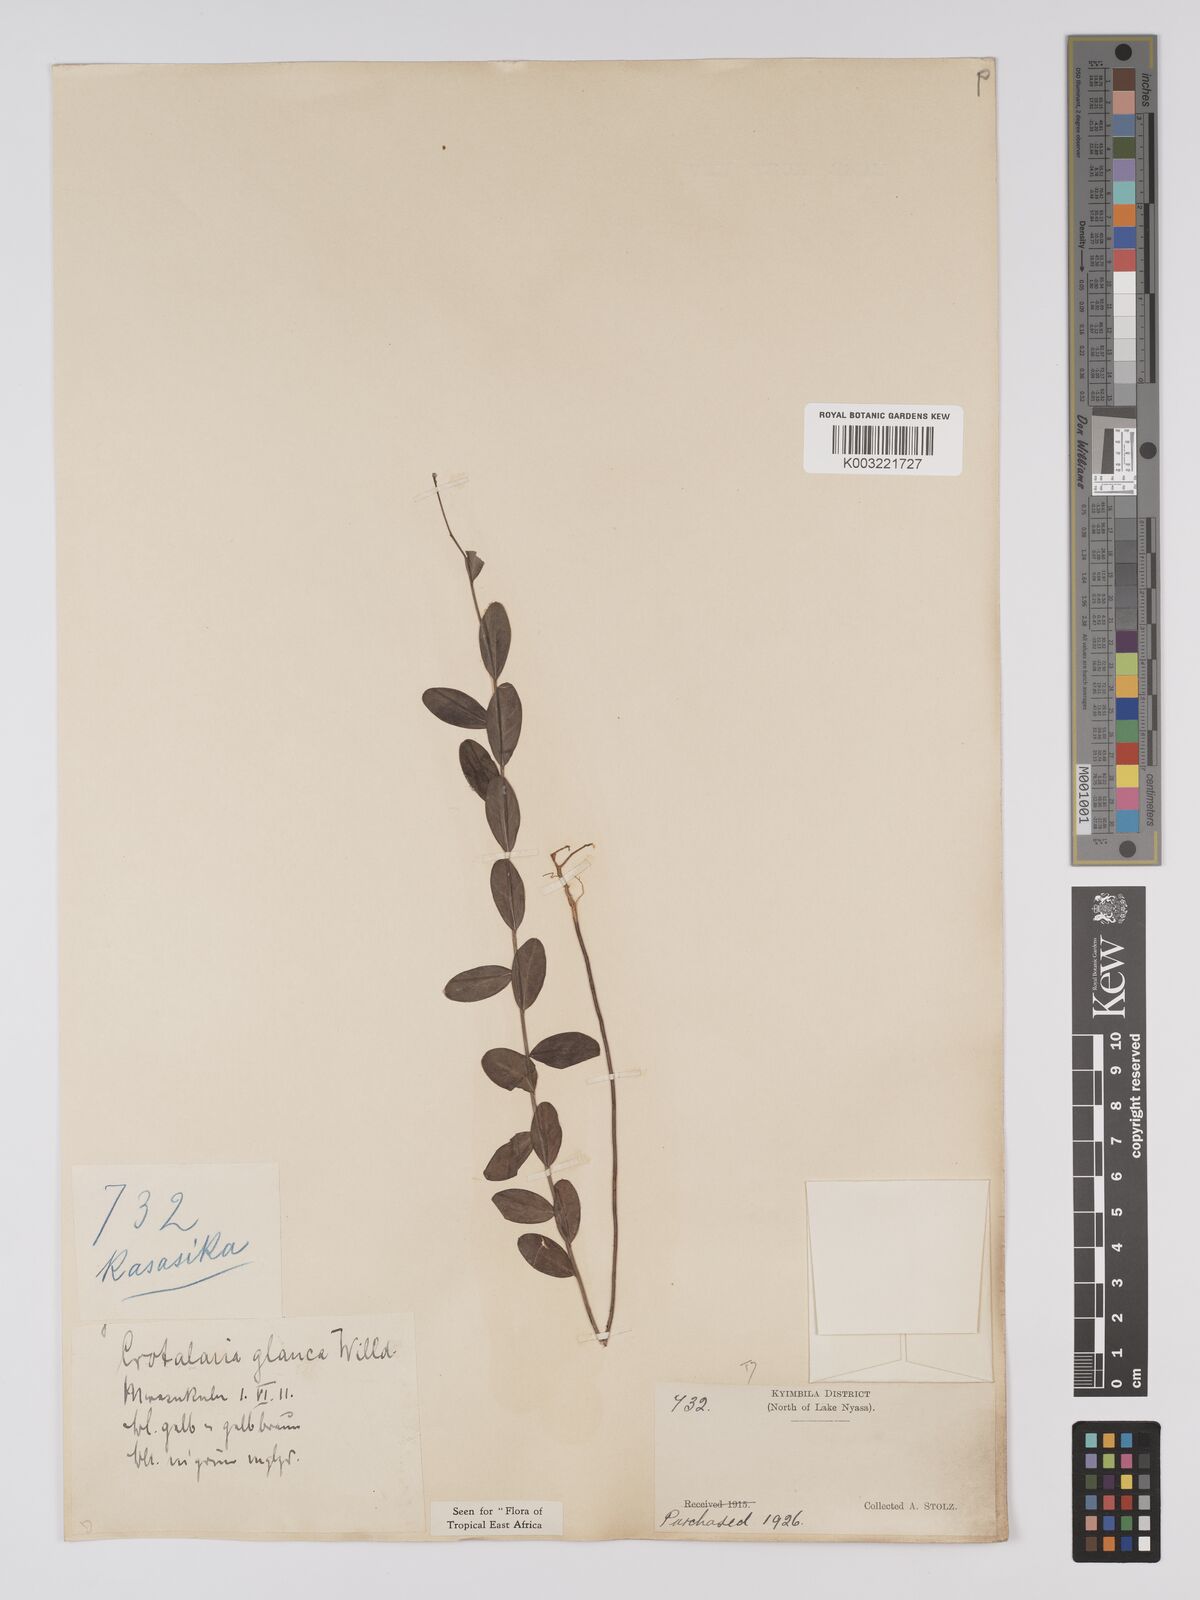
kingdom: Plantae
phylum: Tracheophyta
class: Magnoliopsida
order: Fabales
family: Fabaceae
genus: Crotalaria
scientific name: Crotalaria glauca
